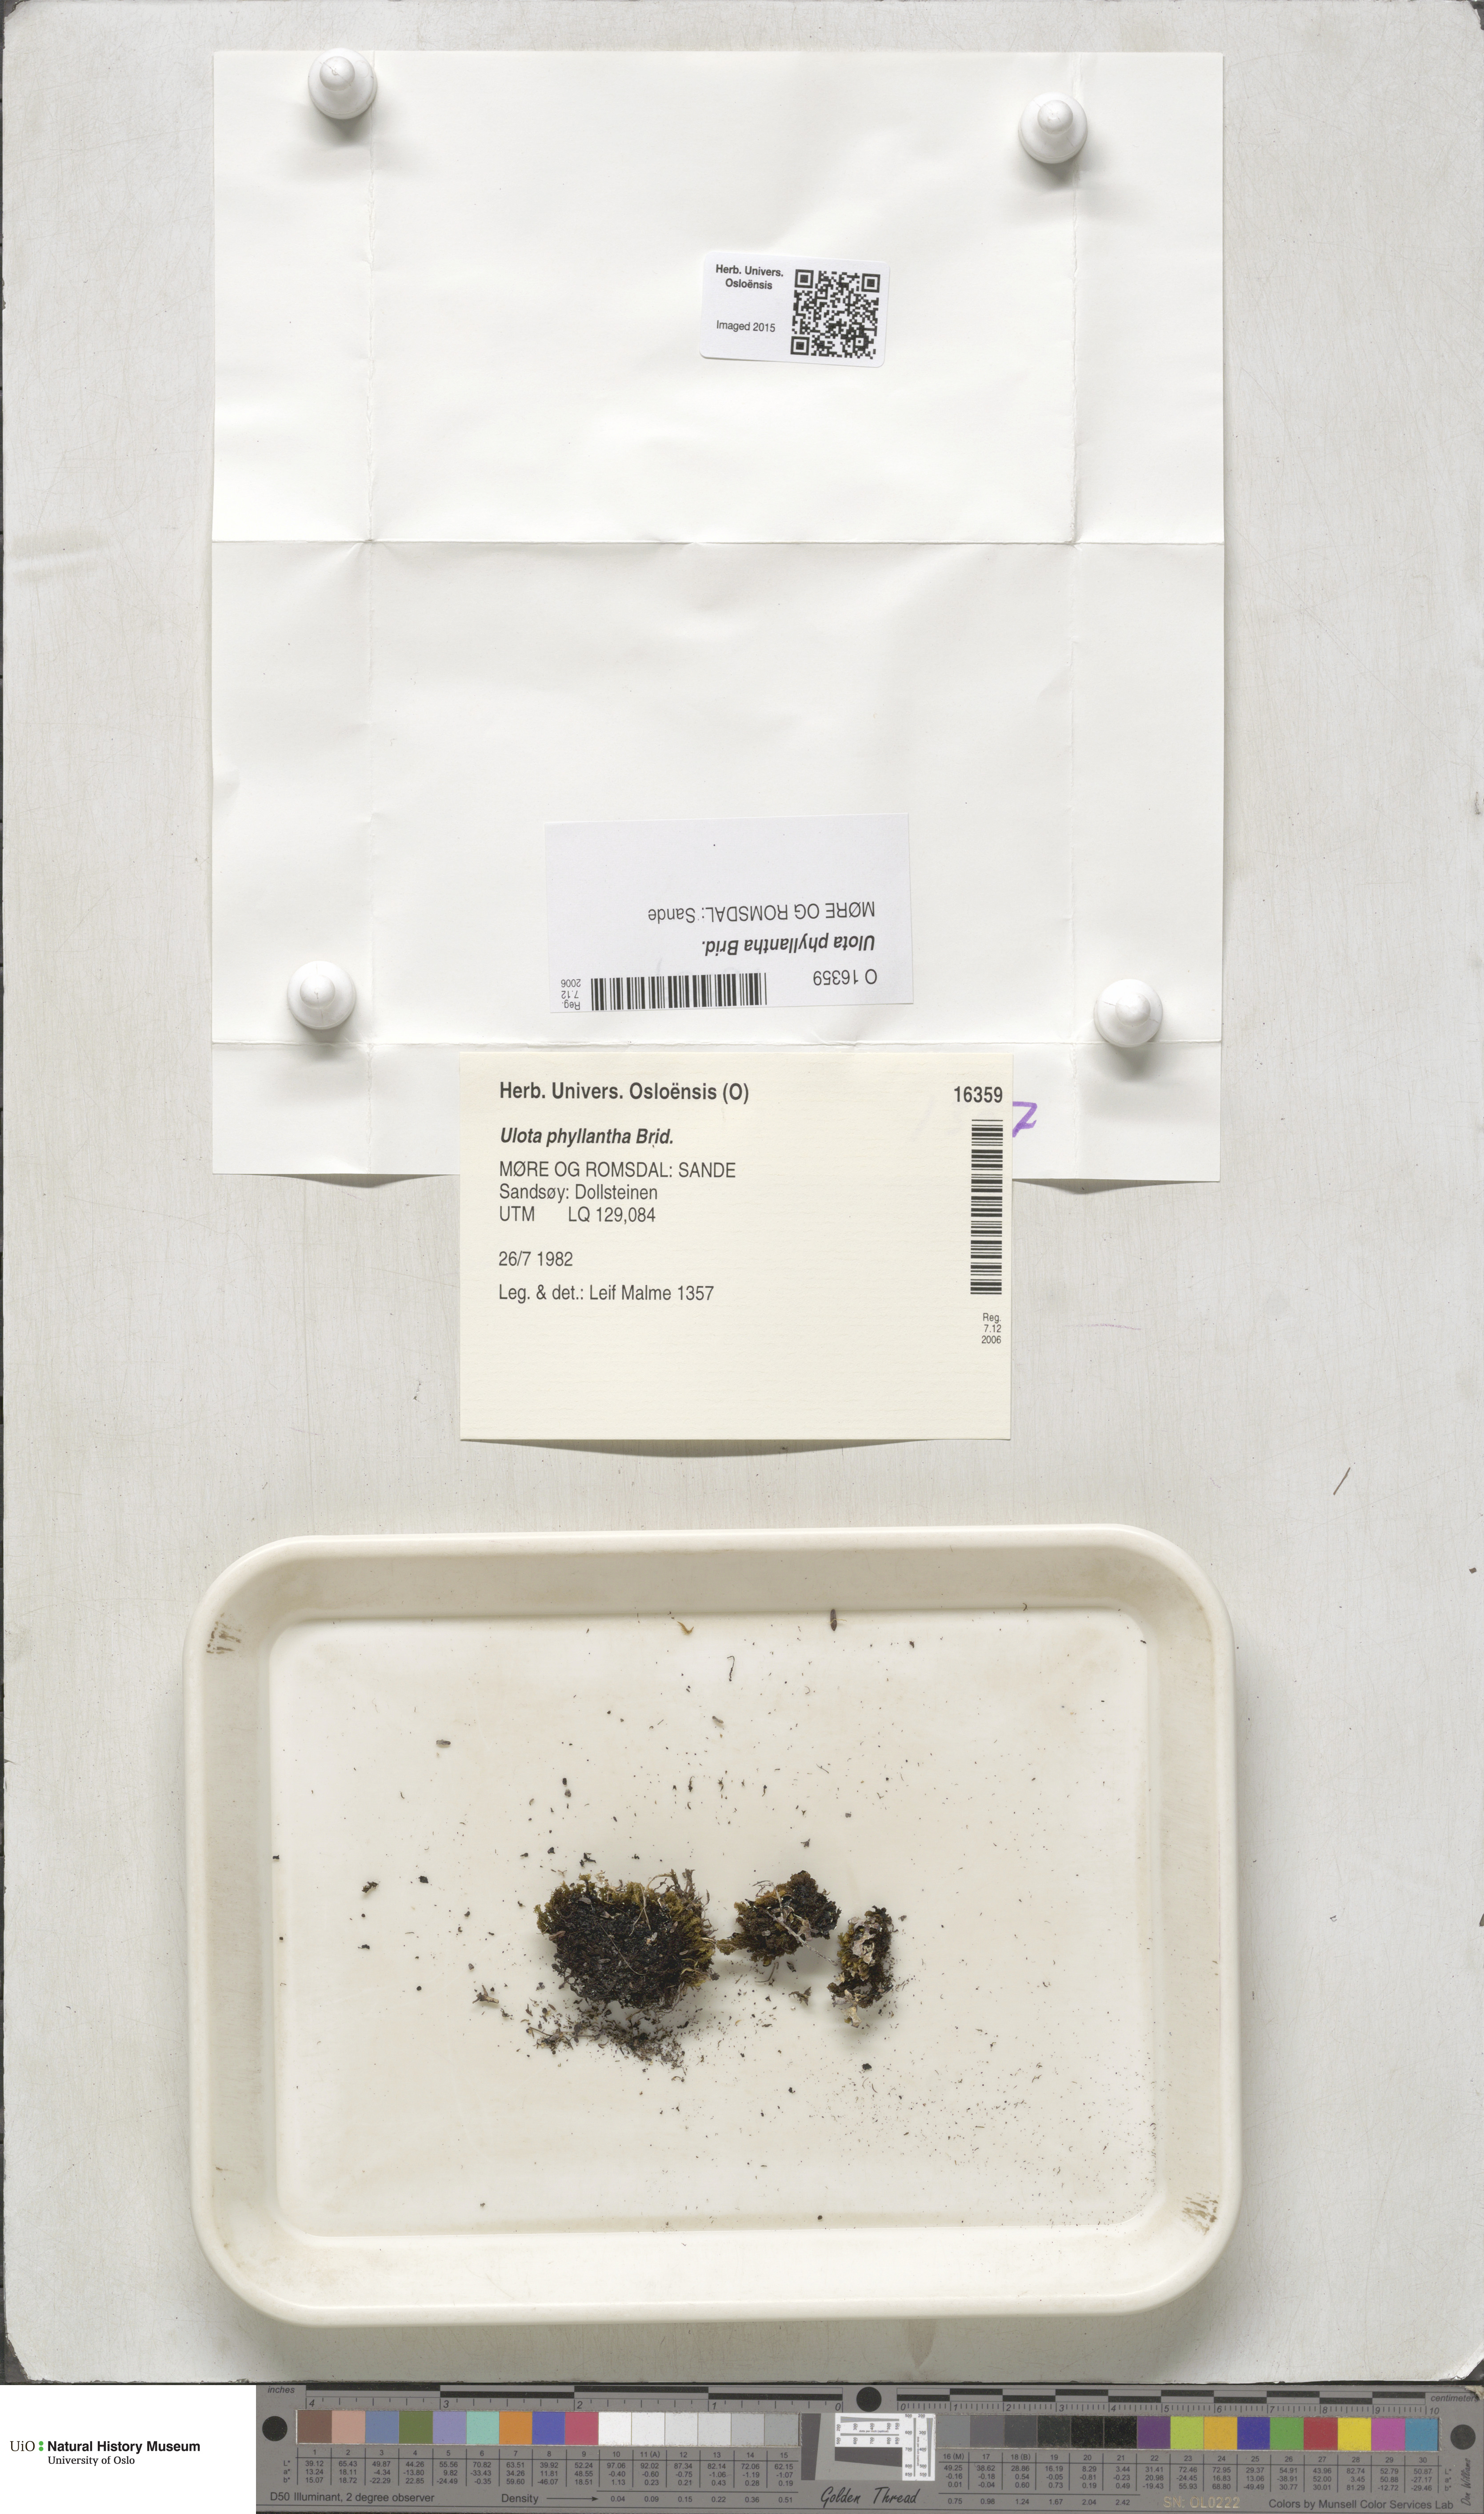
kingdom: Plantae
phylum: Bryophyta
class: Bryopsida
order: Orthotrichales
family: Orthotrichaceae
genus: Plenogemma
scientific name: Plenogemma phyllantha
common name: Frizzled pincushion
